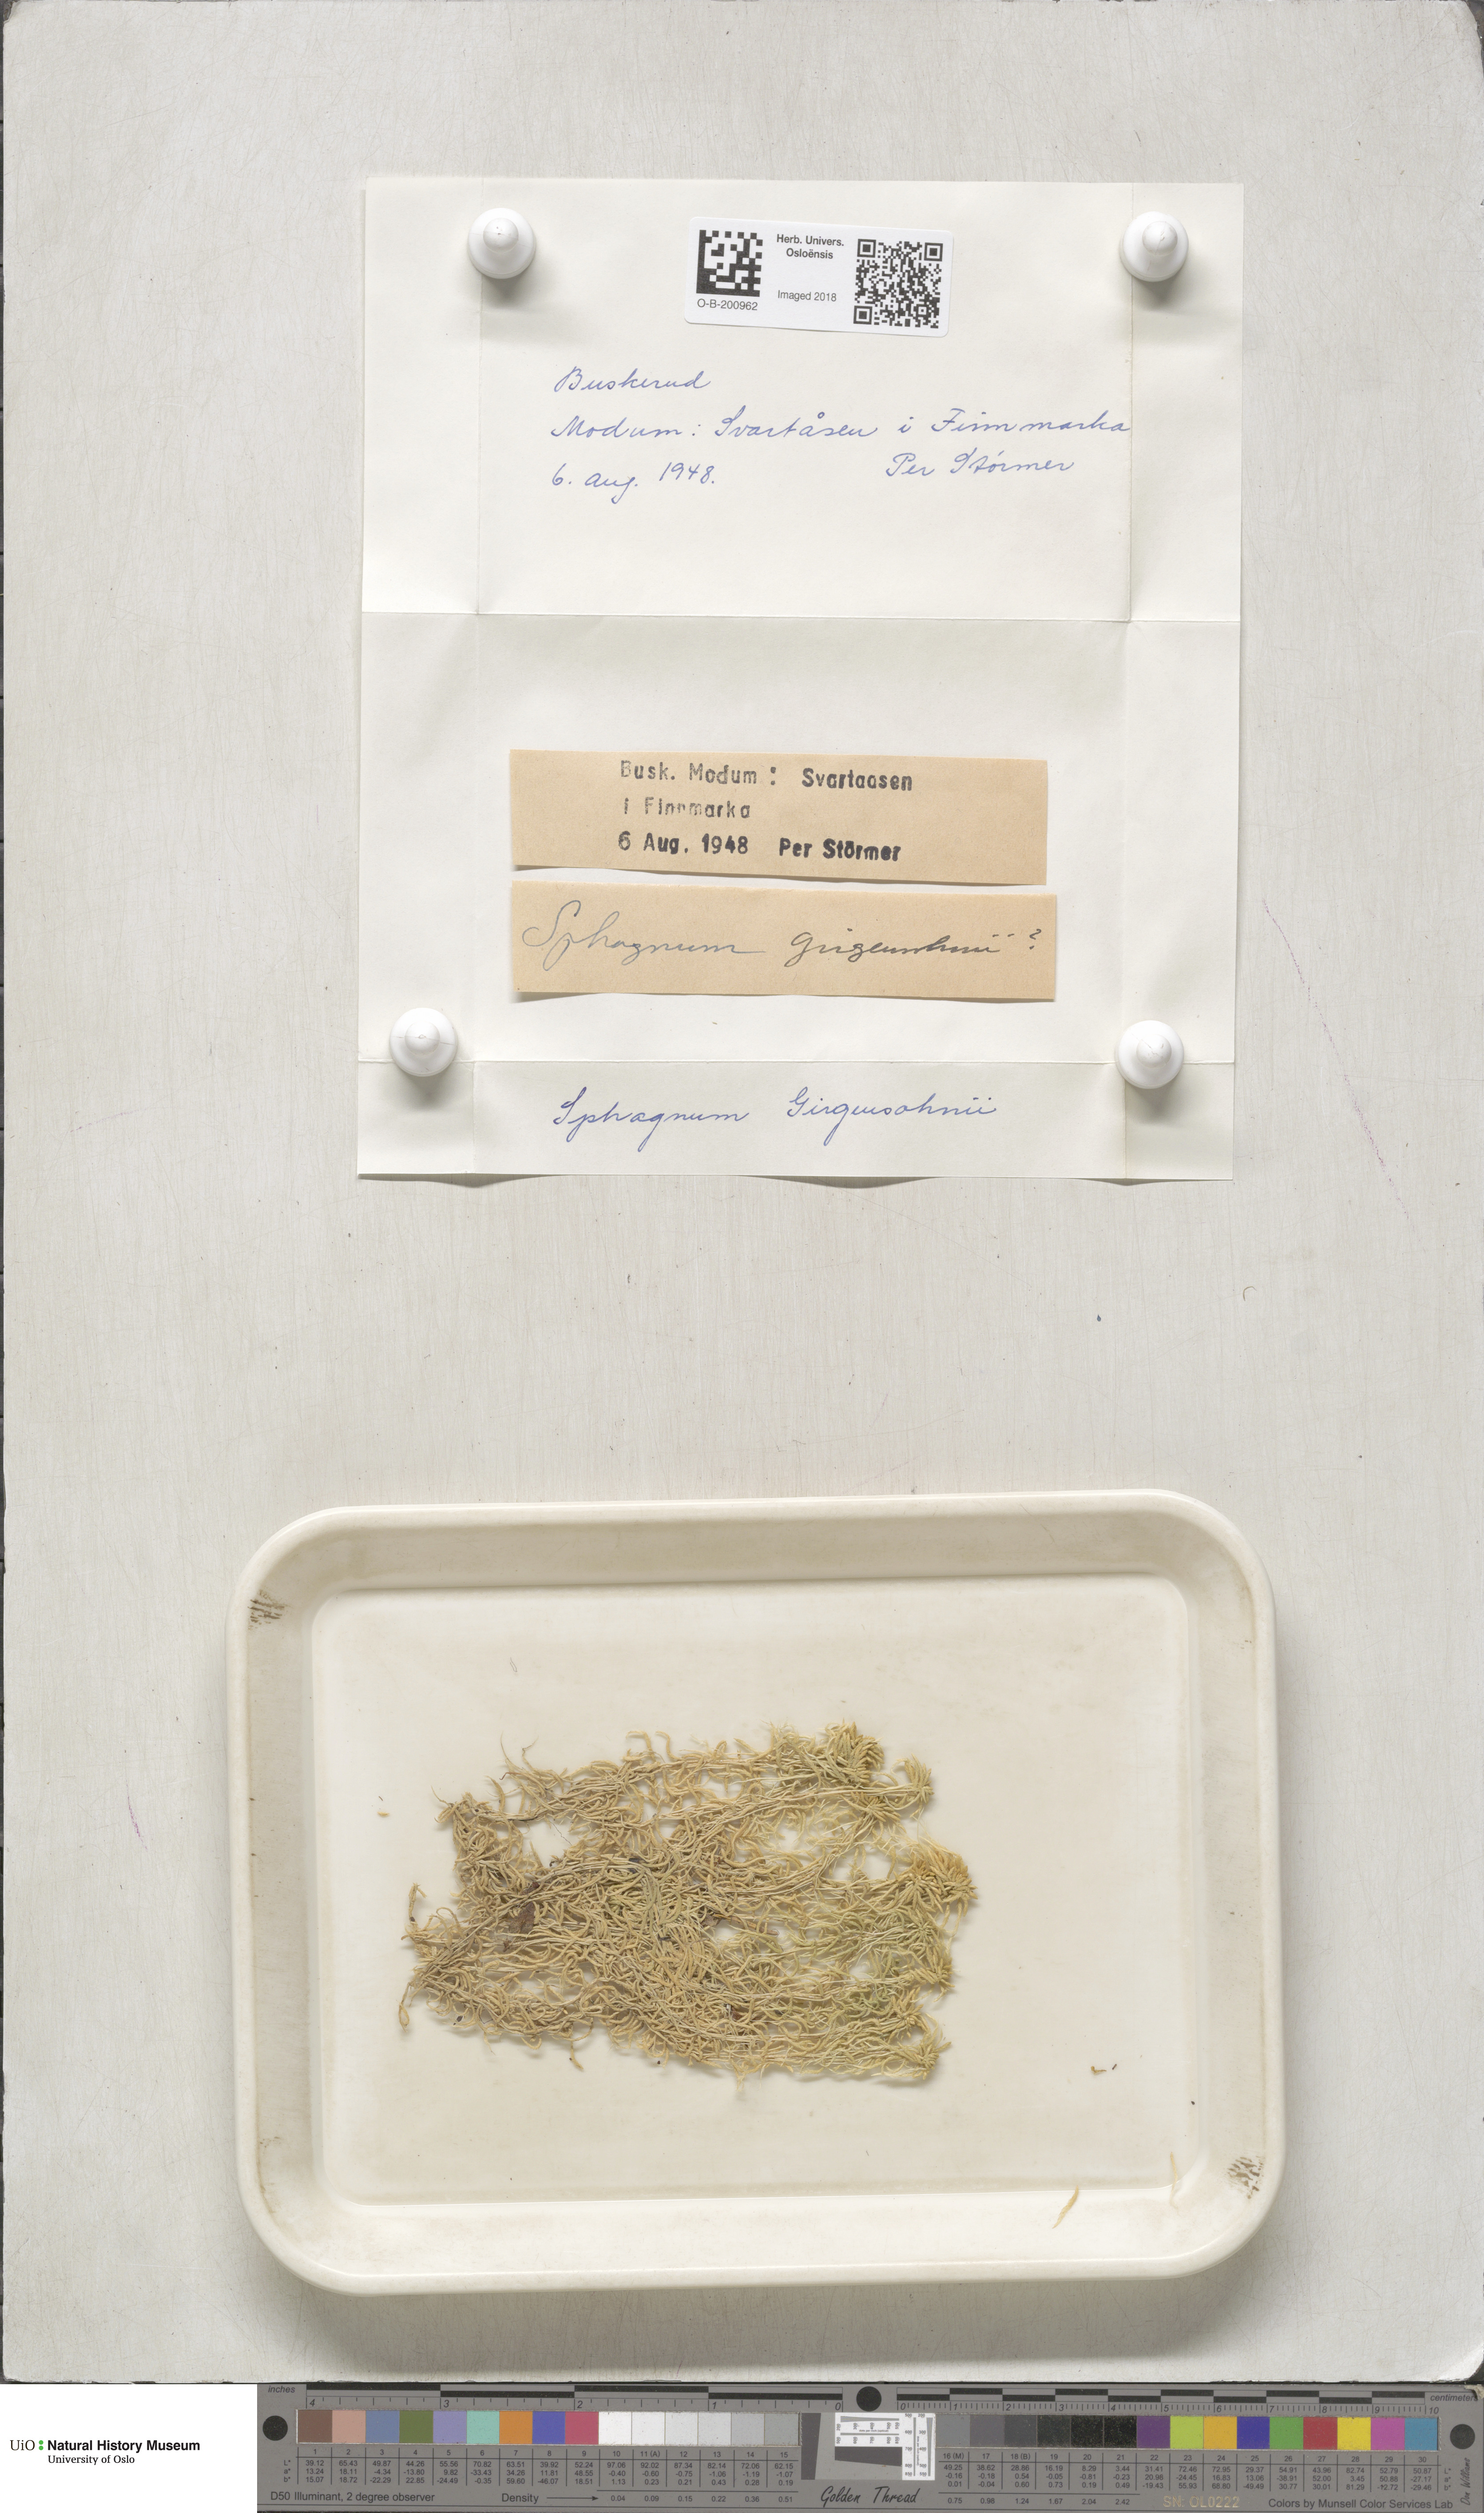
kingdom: Plantae
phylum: Bryophyta
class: Sphagnopsida
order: Sphagnales
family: Sphagnaceae
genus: Sphagnum
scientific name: Sphagnum girgensohnii
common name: Girgensohn's peat moss
